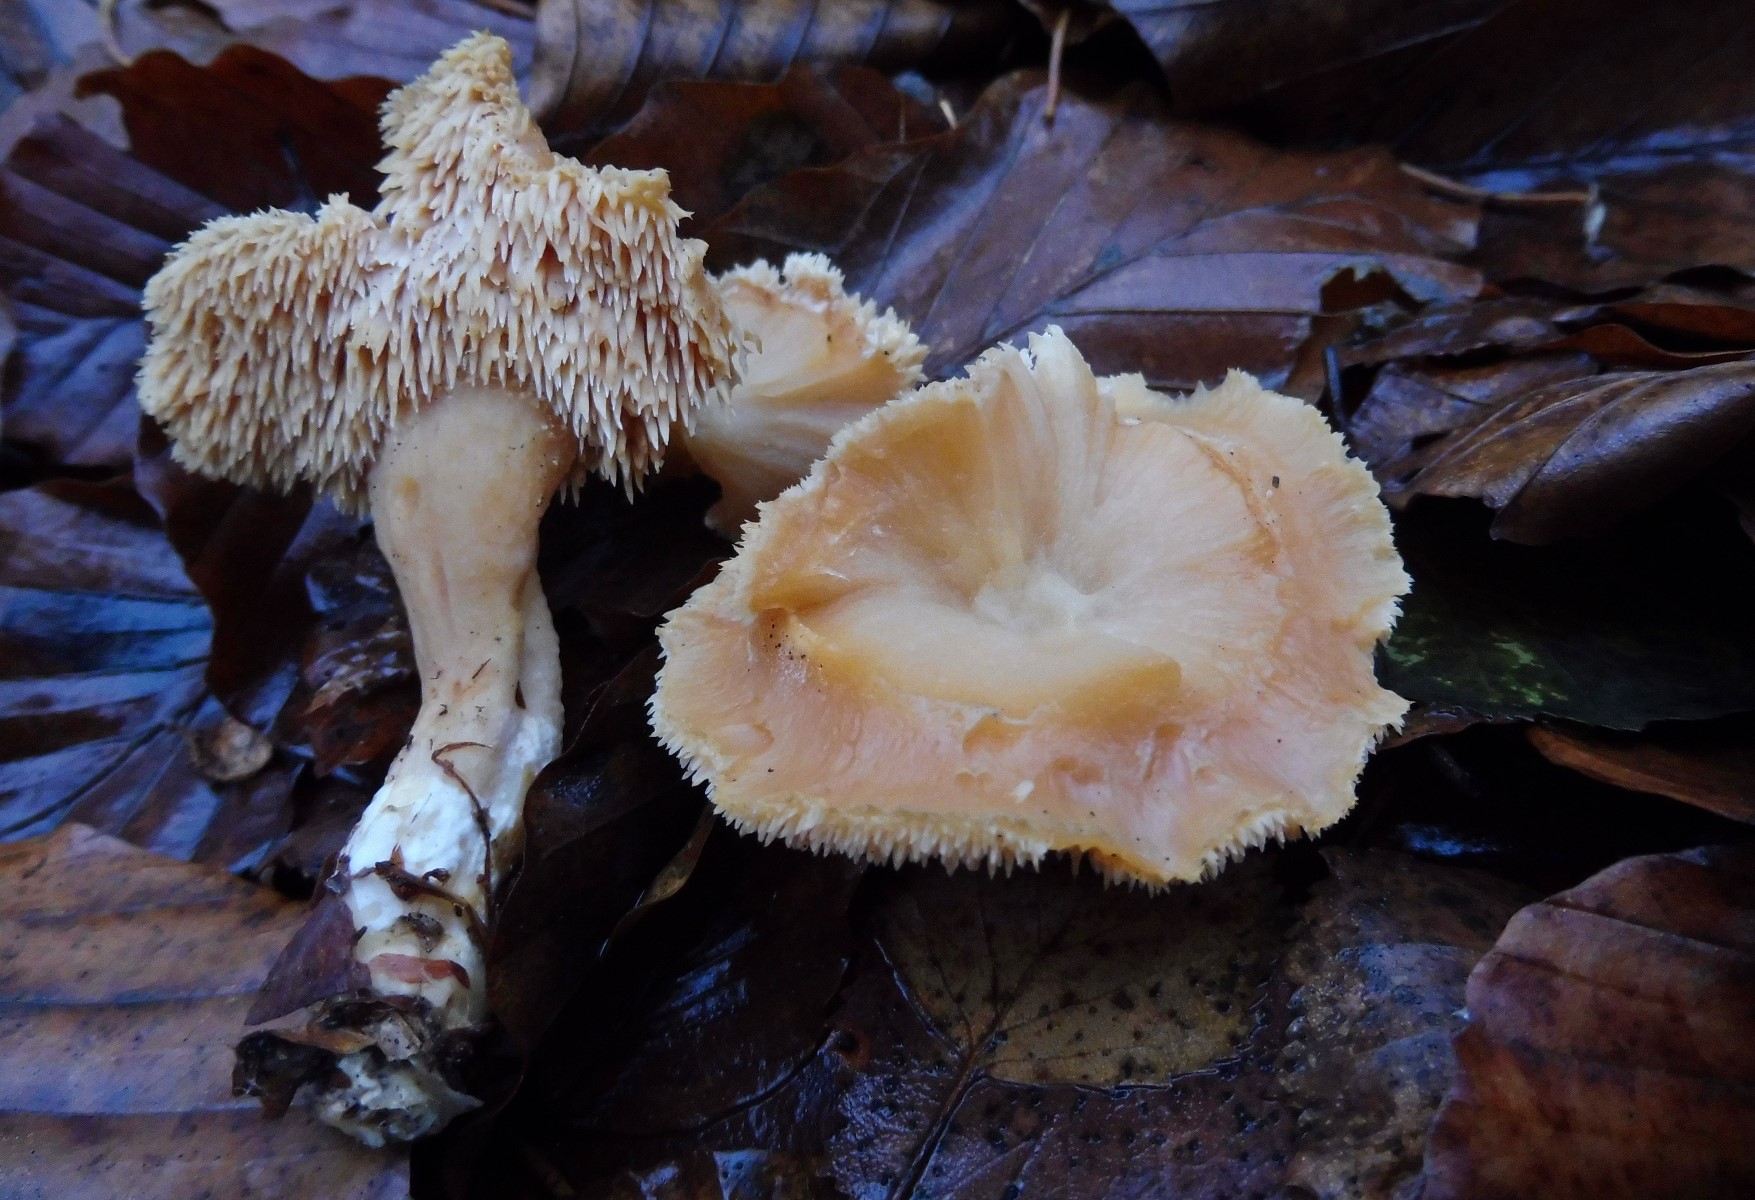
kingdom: Fungi
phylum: Basidiomycota
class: Agaricomycetes
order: Cantharellales
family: Hydnaceae
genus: Hydnum
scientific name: Hydnum
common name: pigsvamp
